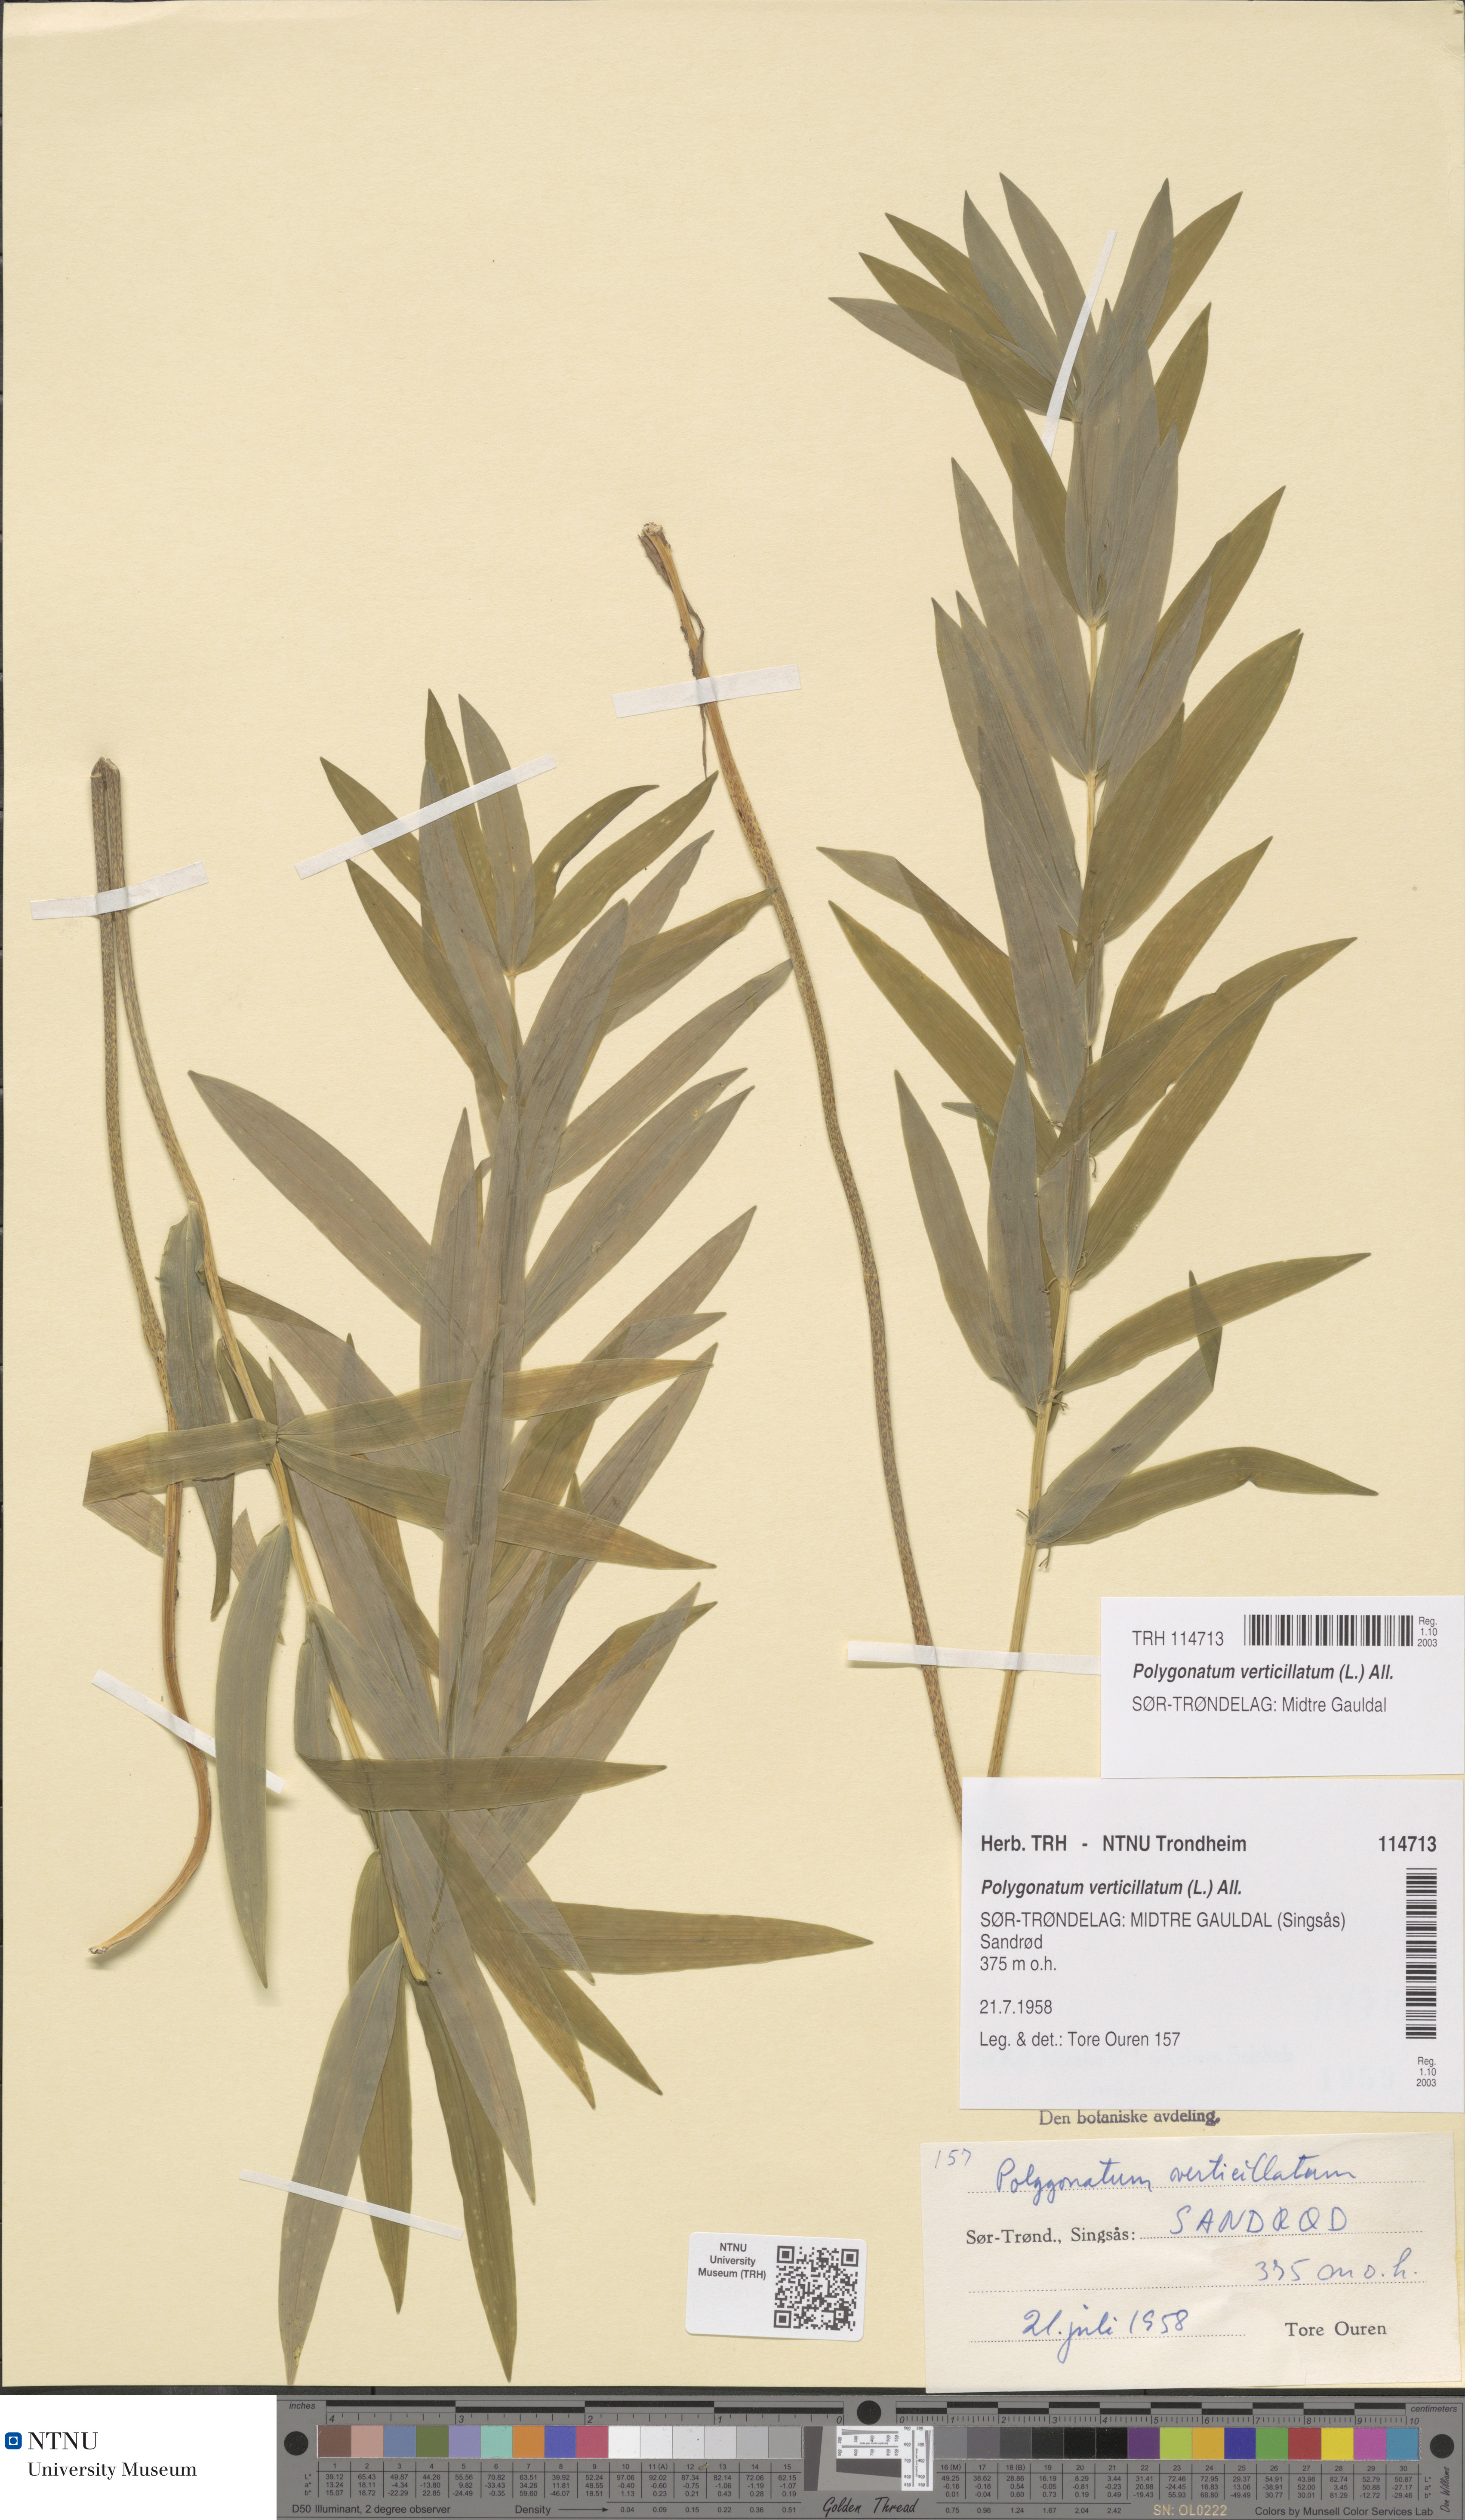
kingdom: Plantae
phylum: Tracheophyta
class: Liliopsida
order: Asparagales
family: Asparagaceae
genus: Polygonatum
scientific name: Polygonatum verticillatum
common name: Whorled solomon's-seal
